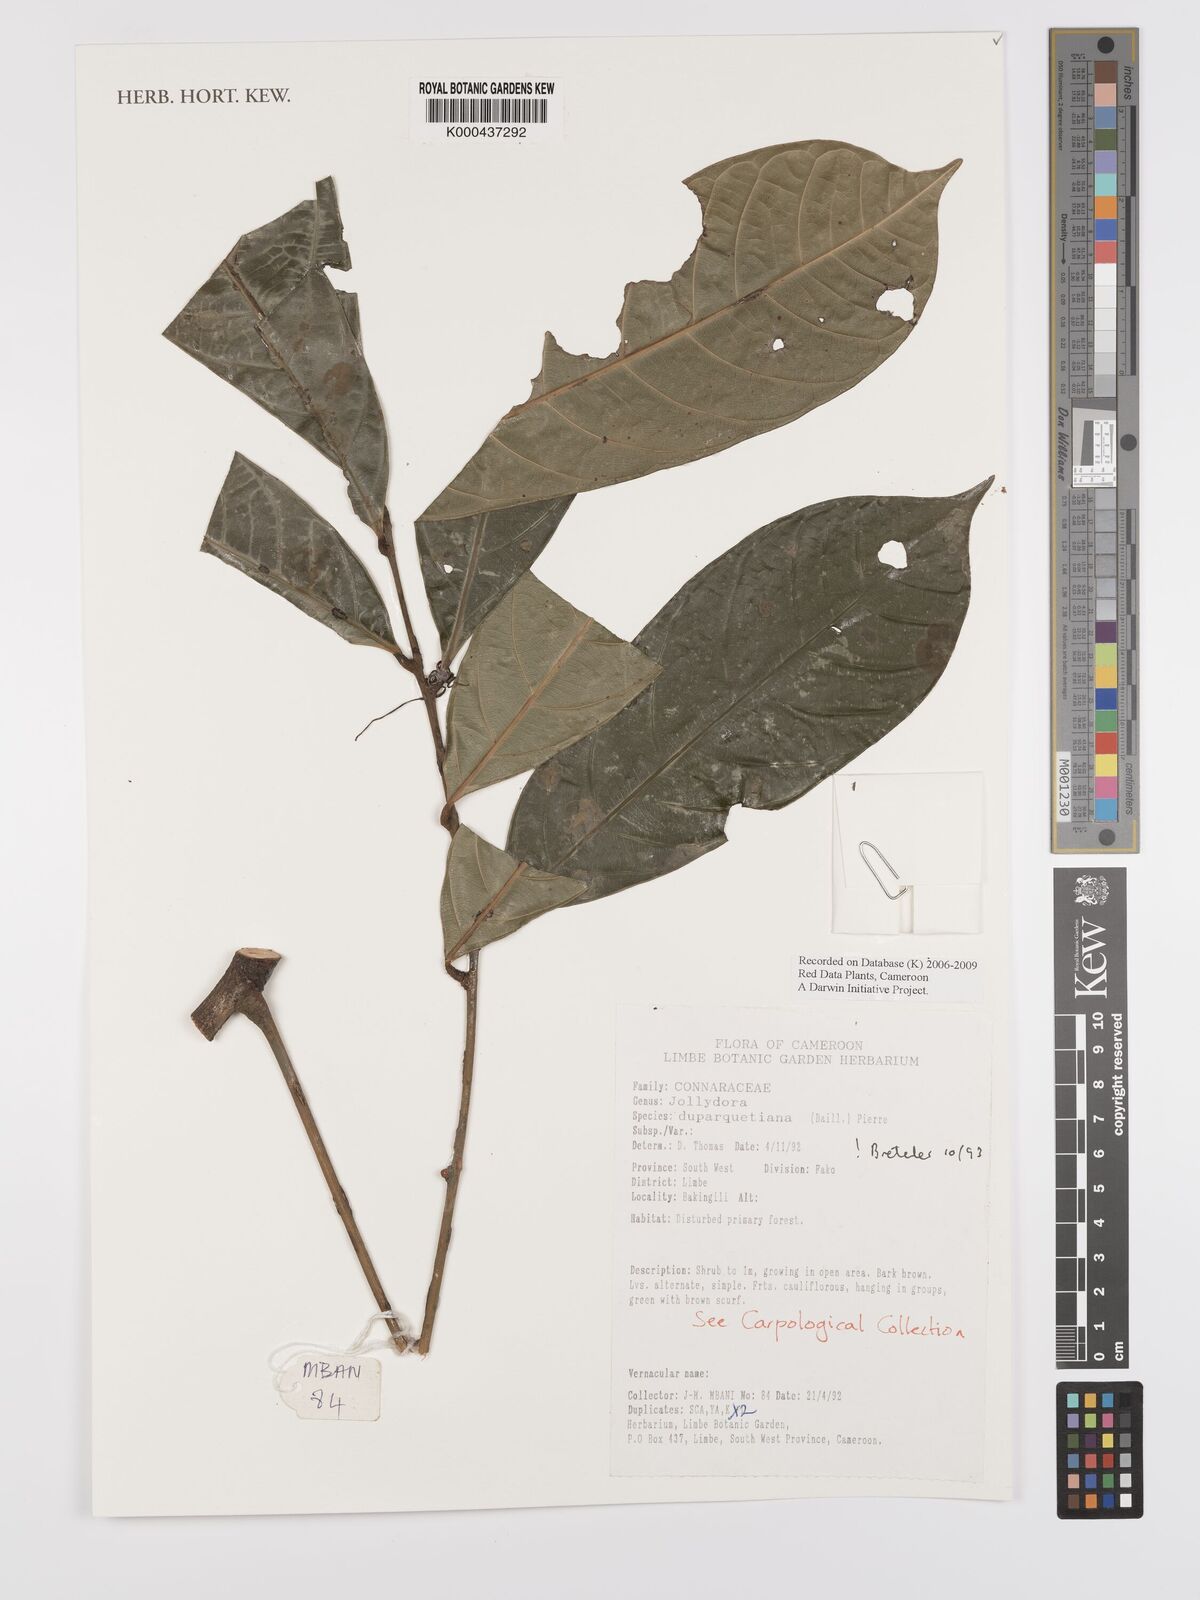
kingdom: Plantae
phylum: Tracheophyta
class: Magnoliopsida
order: Oxalidales
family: Connaraceae
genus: Jollydora
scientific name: Jollydora duparquetiana
